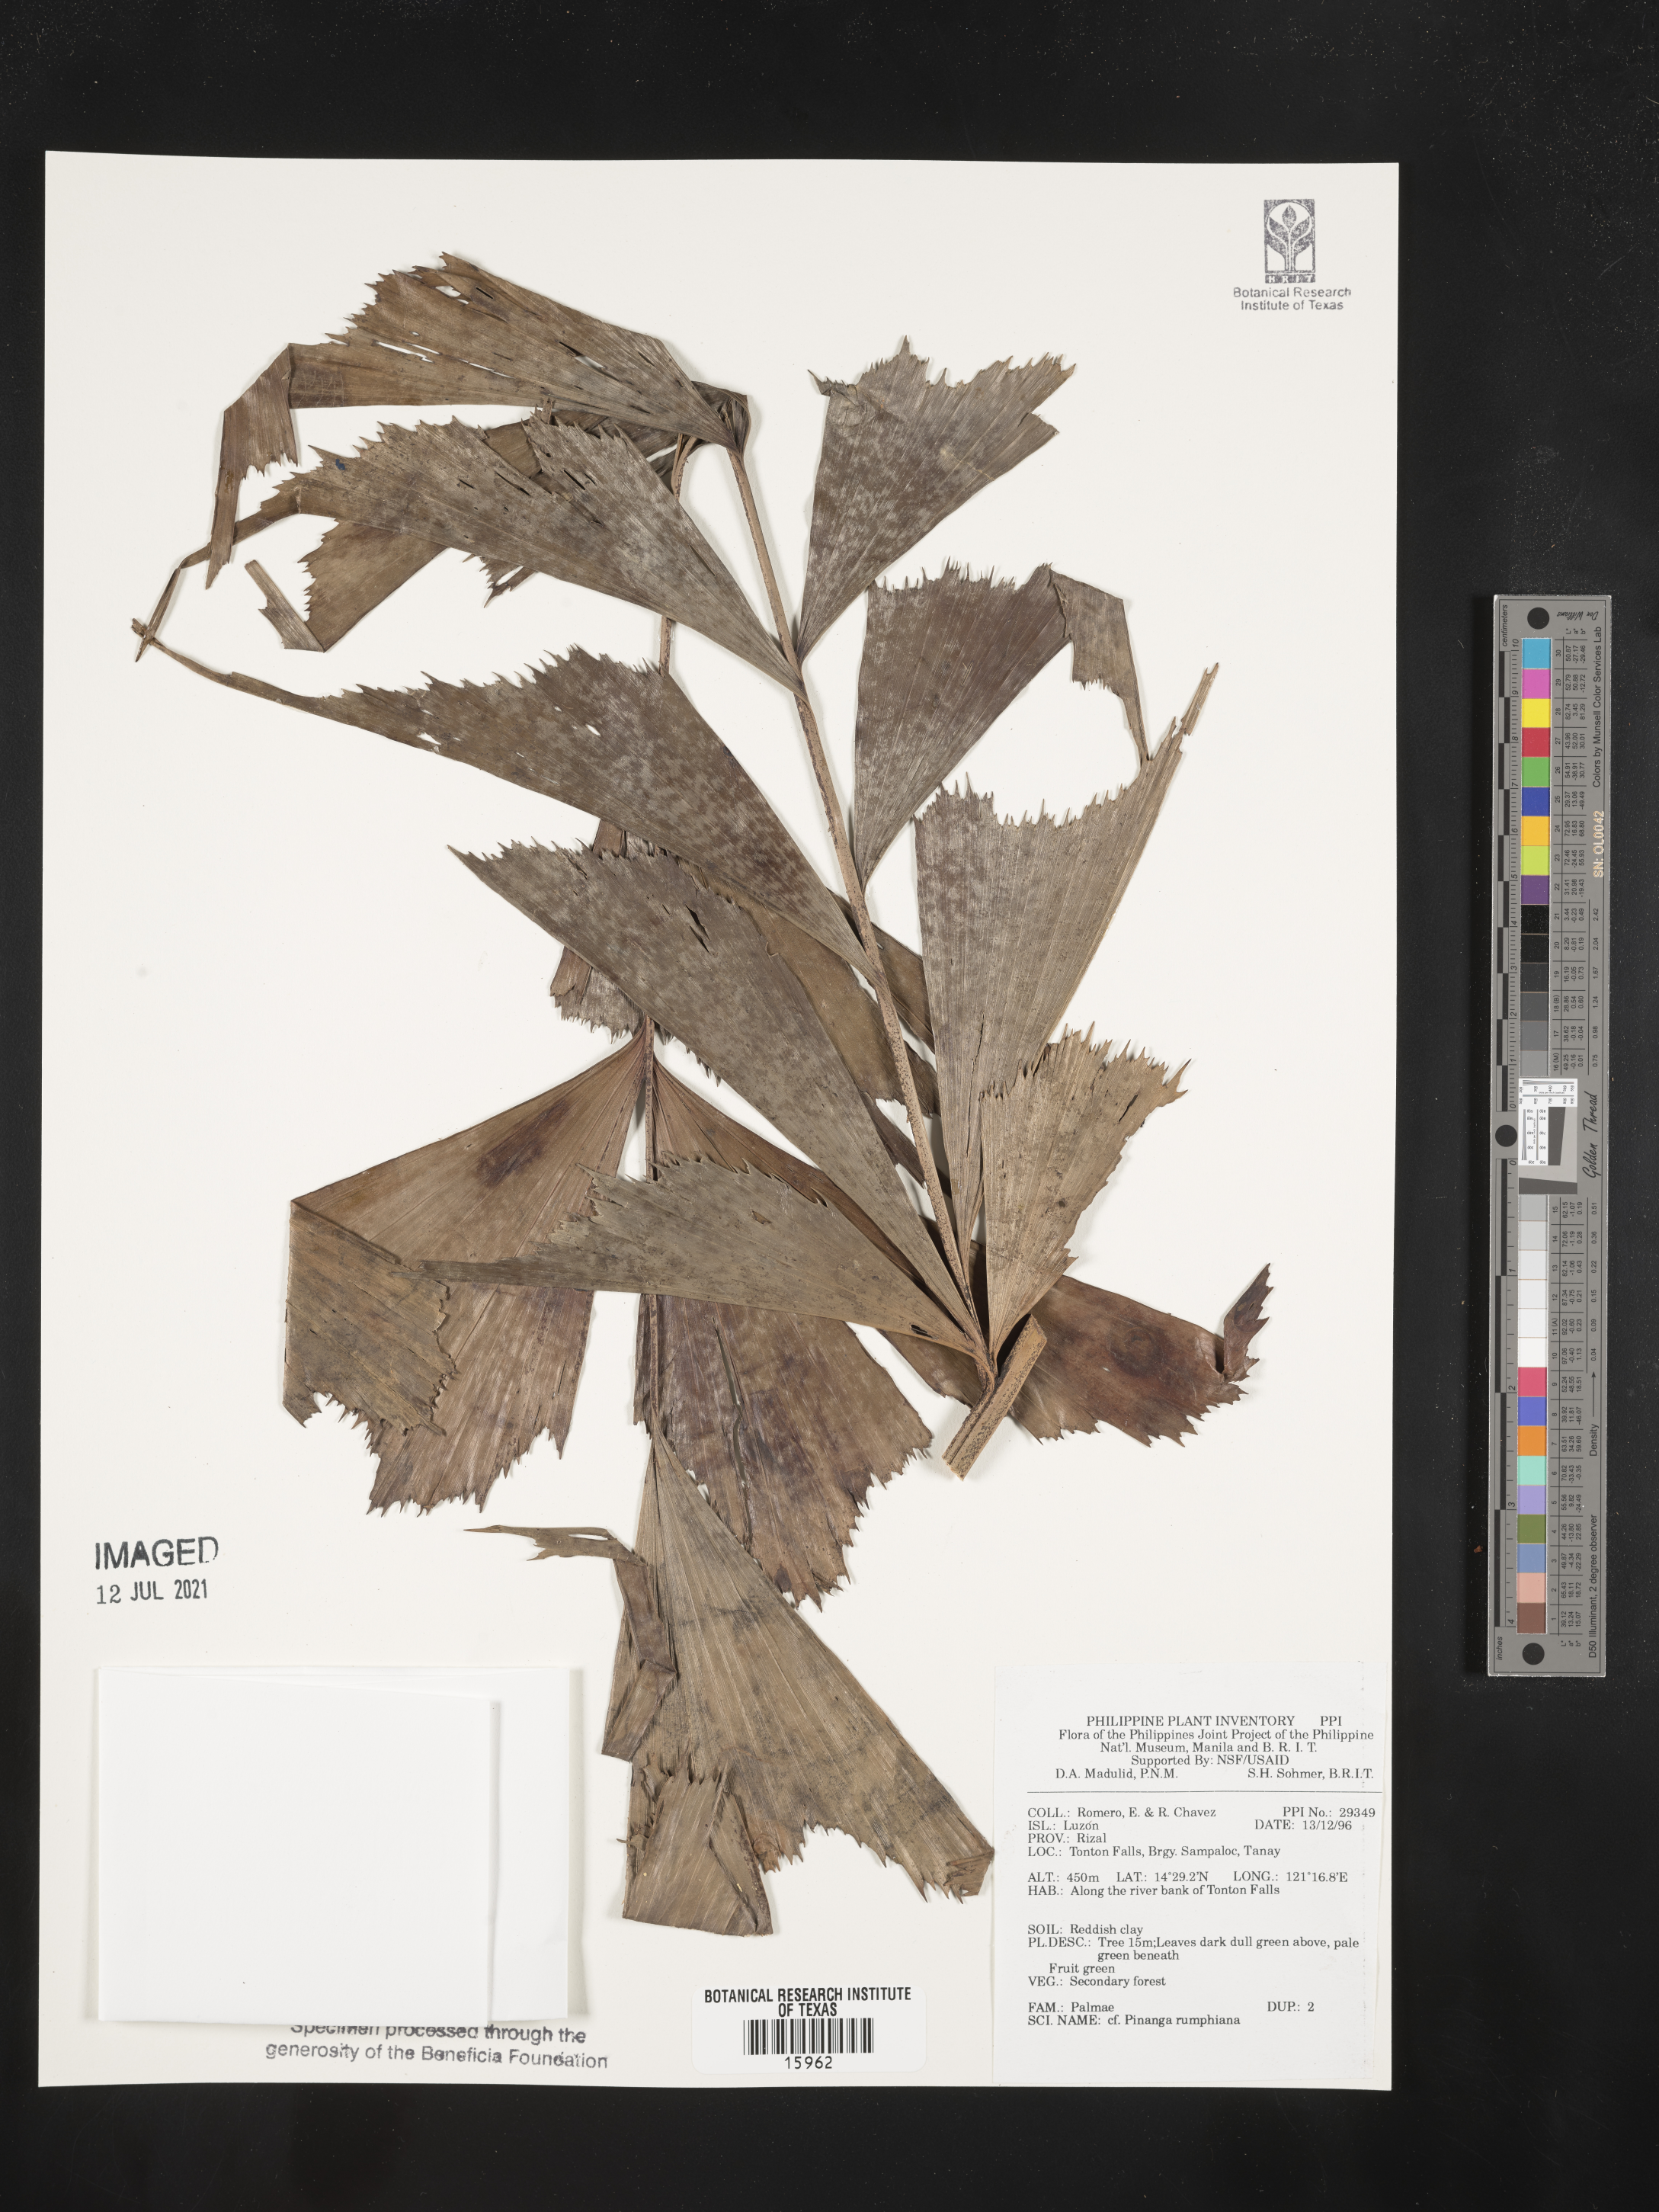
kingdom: Plantae
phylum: Tracheophyta
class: Liliopsida
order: Arecales
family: Arecaceae
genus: Pinanga
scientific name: Pinanga rumphiana
